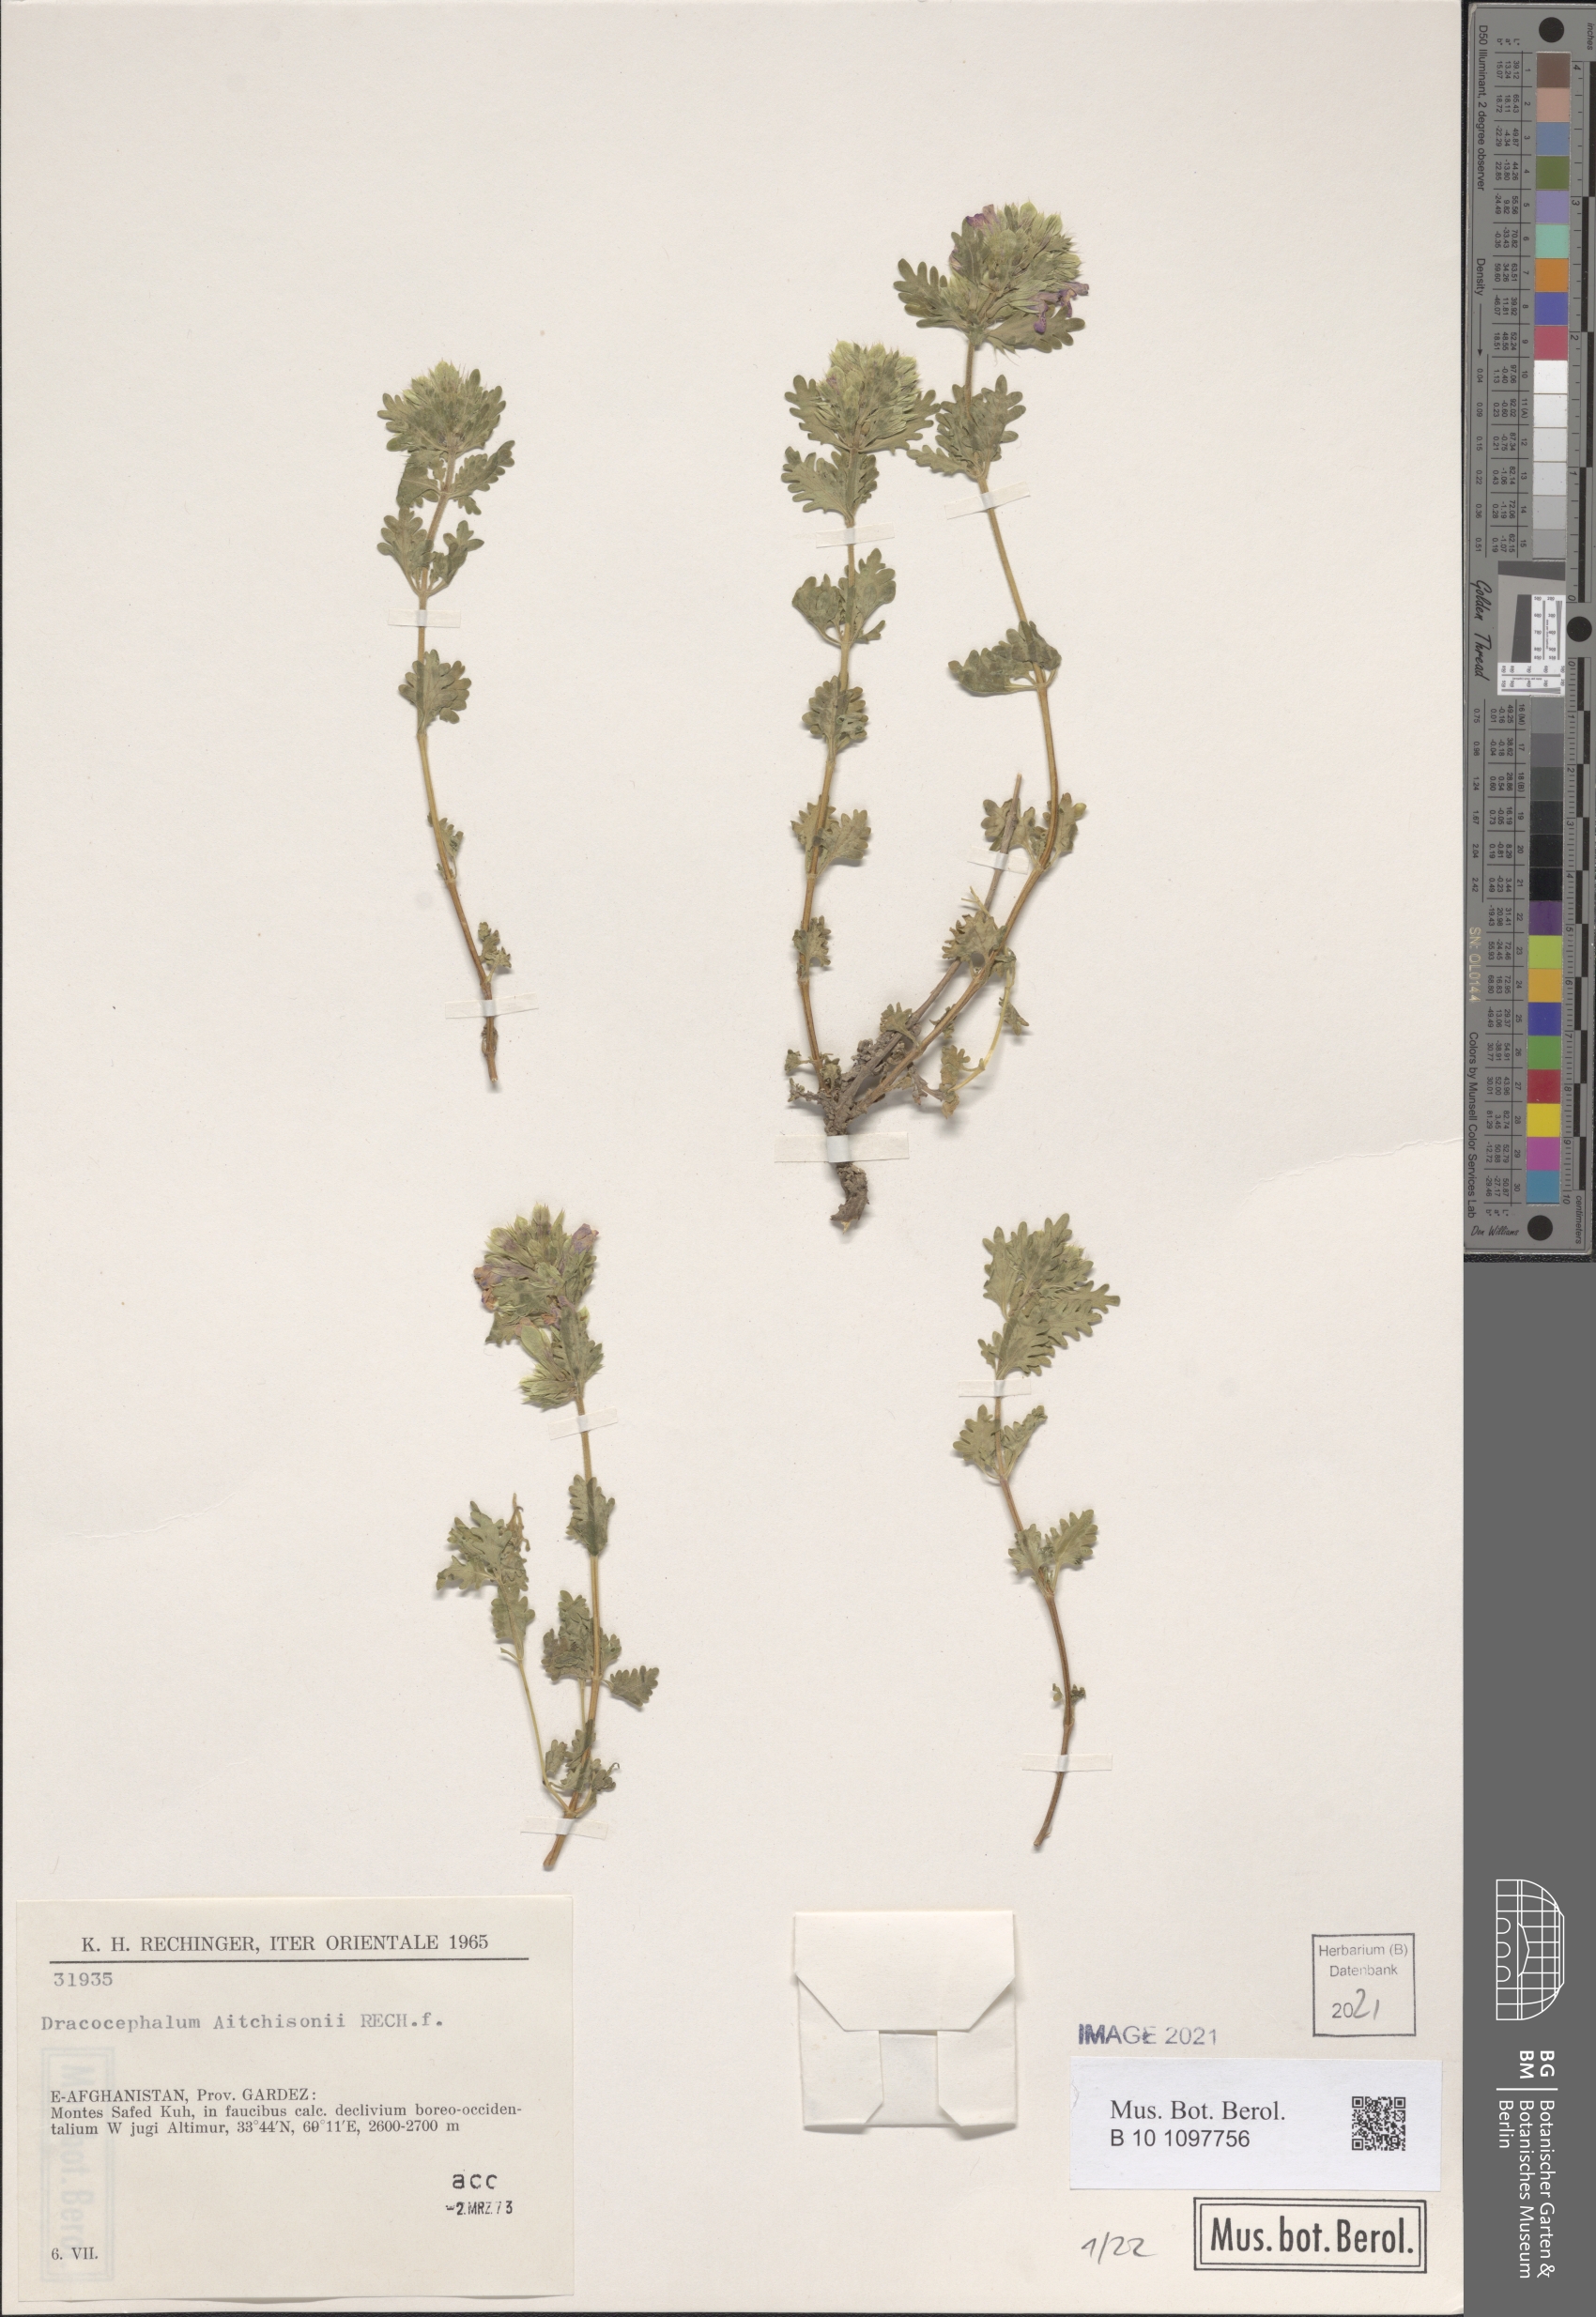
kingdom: Plantae
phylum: Tracheophyta
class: Magnoliopsida
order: Lamiales
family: Lamiaceae
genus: Dracocephalum
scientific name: Dracocephalum aitchisonii
